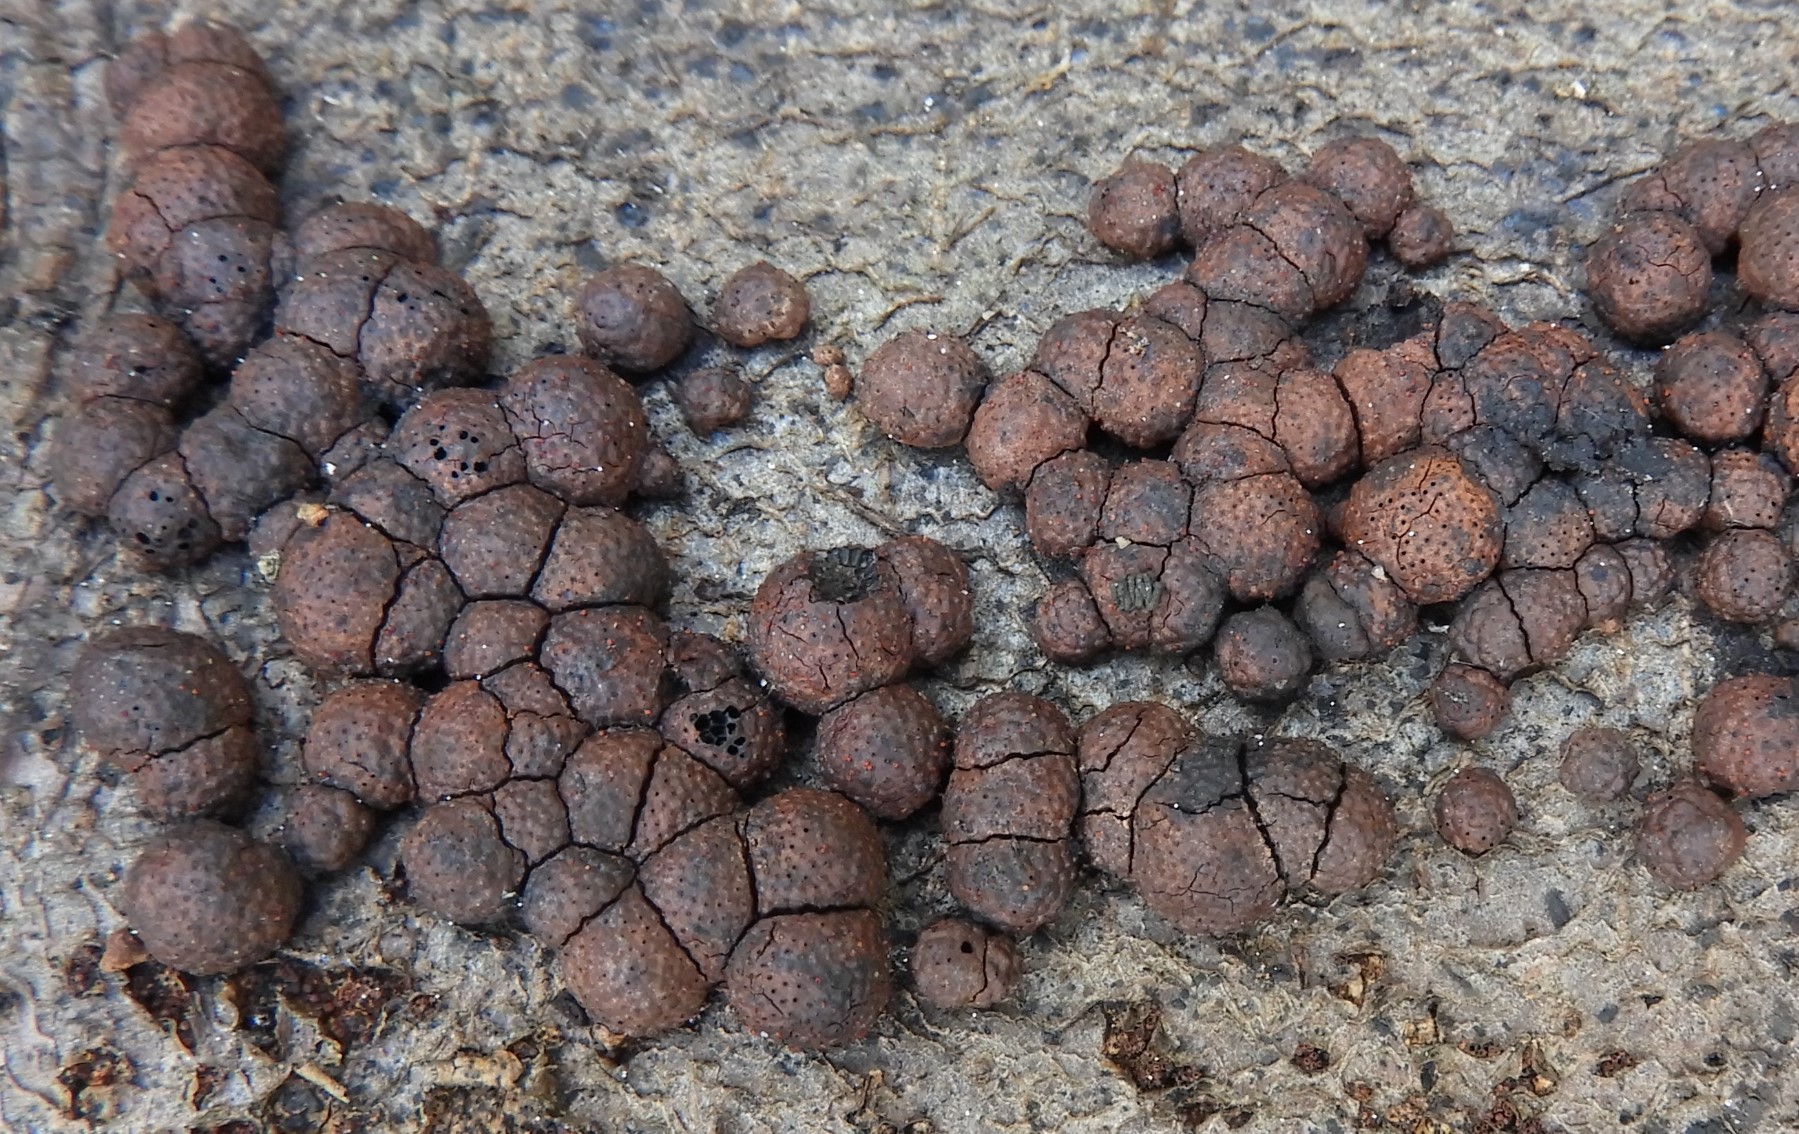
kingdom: Fungi
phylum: Ascomycota
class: Sordariomycetes
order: Xylariales
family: Hypoxylaceae
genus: Hypoxylon
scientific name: Hypoxylon fragiforme
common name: kuljordbær
